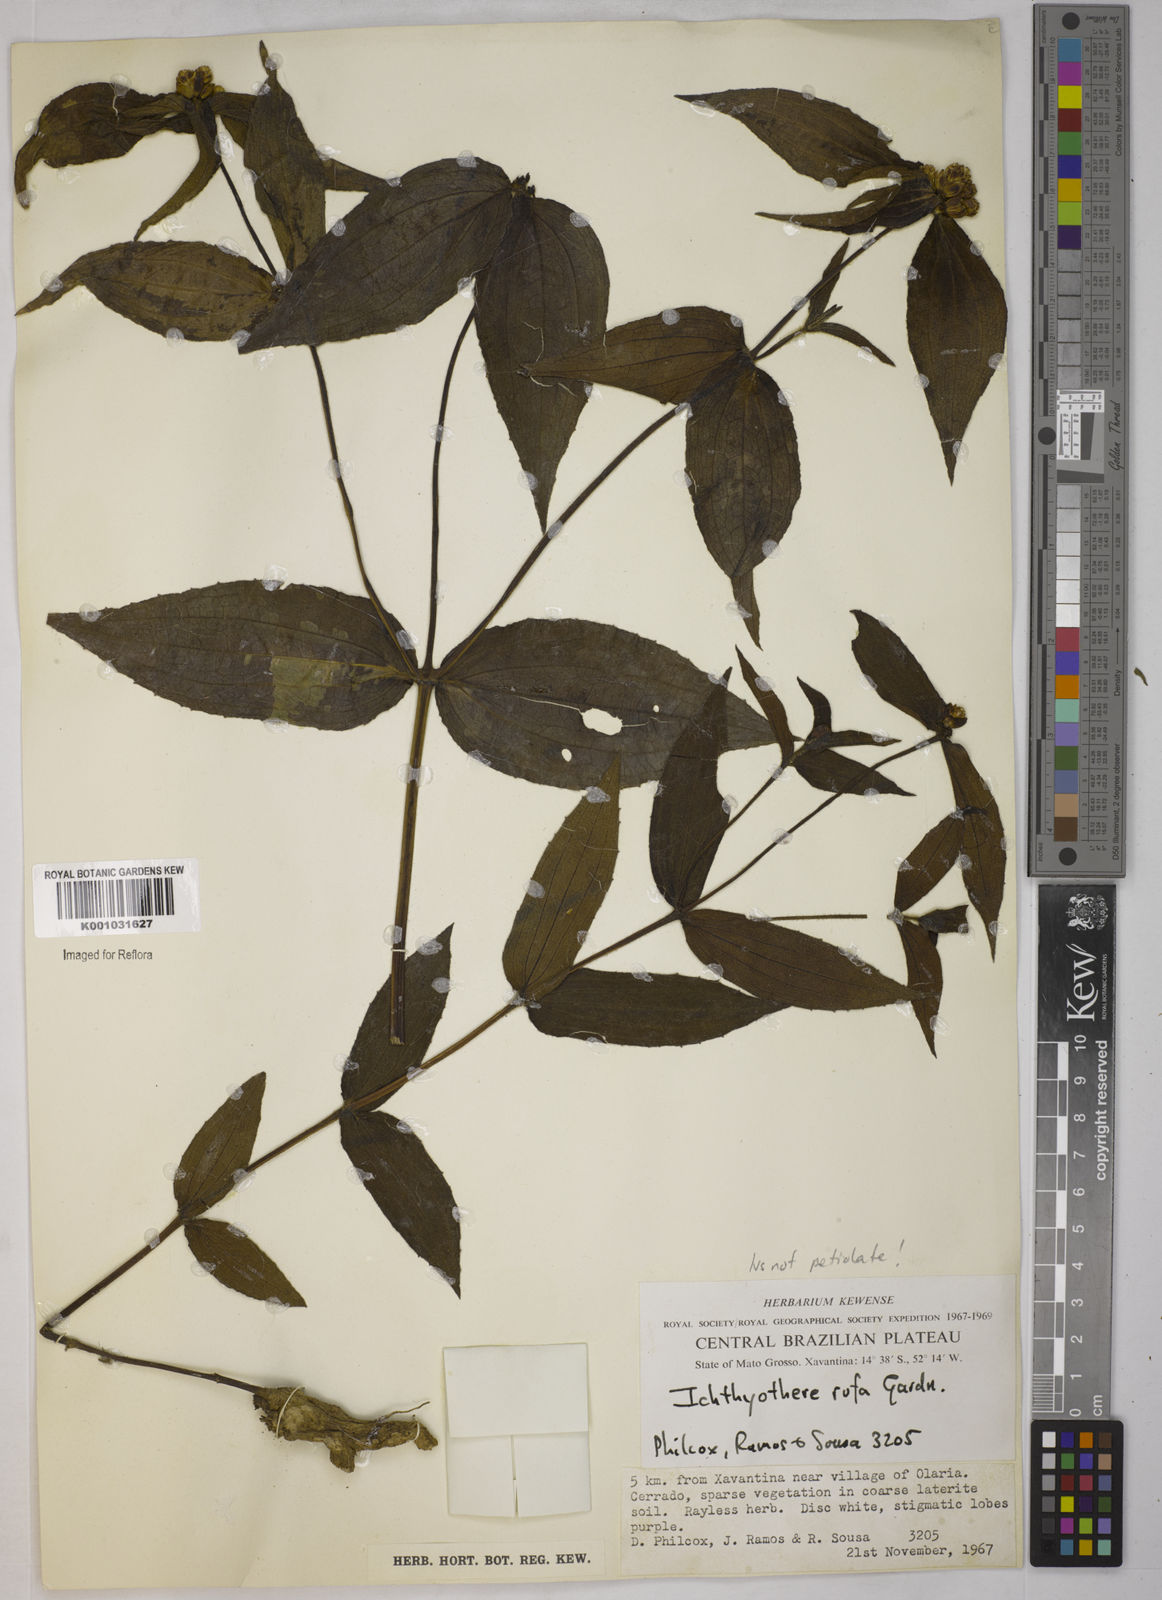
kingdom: Plantae
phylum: Tracheophyta
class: Magnoliopsida
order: Asterales
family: Asteraceae
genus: Ichthyothere
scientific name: Ichthyothere rufa
